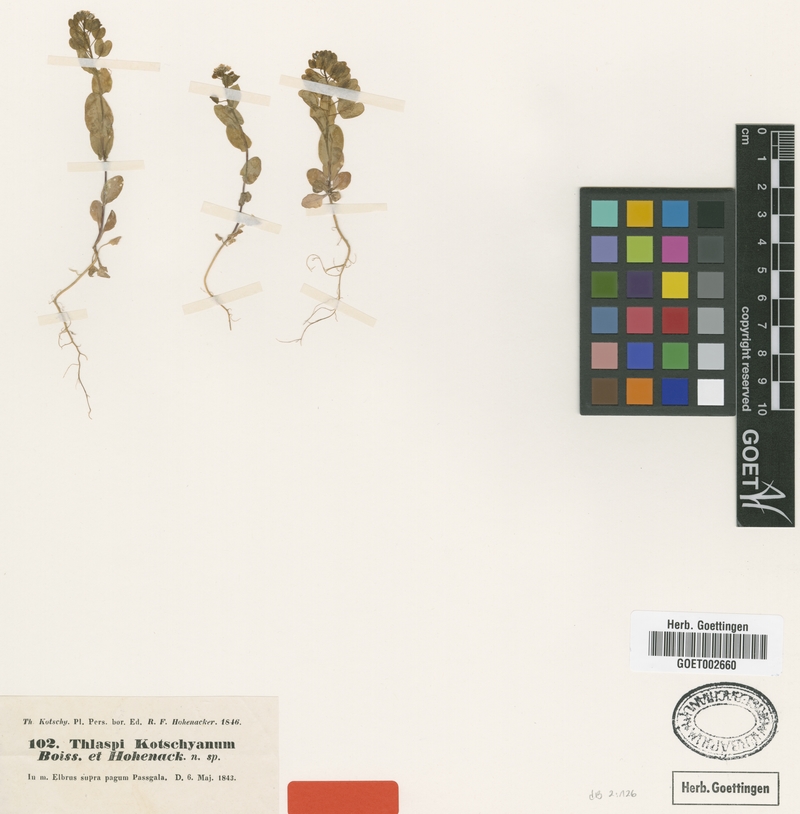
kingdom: Plantae
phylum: Tracheophyta
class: Magnoliopsida
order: Brassicales
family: Brassicaceae
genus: Noccaea
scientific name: Noccaea platycarpa
